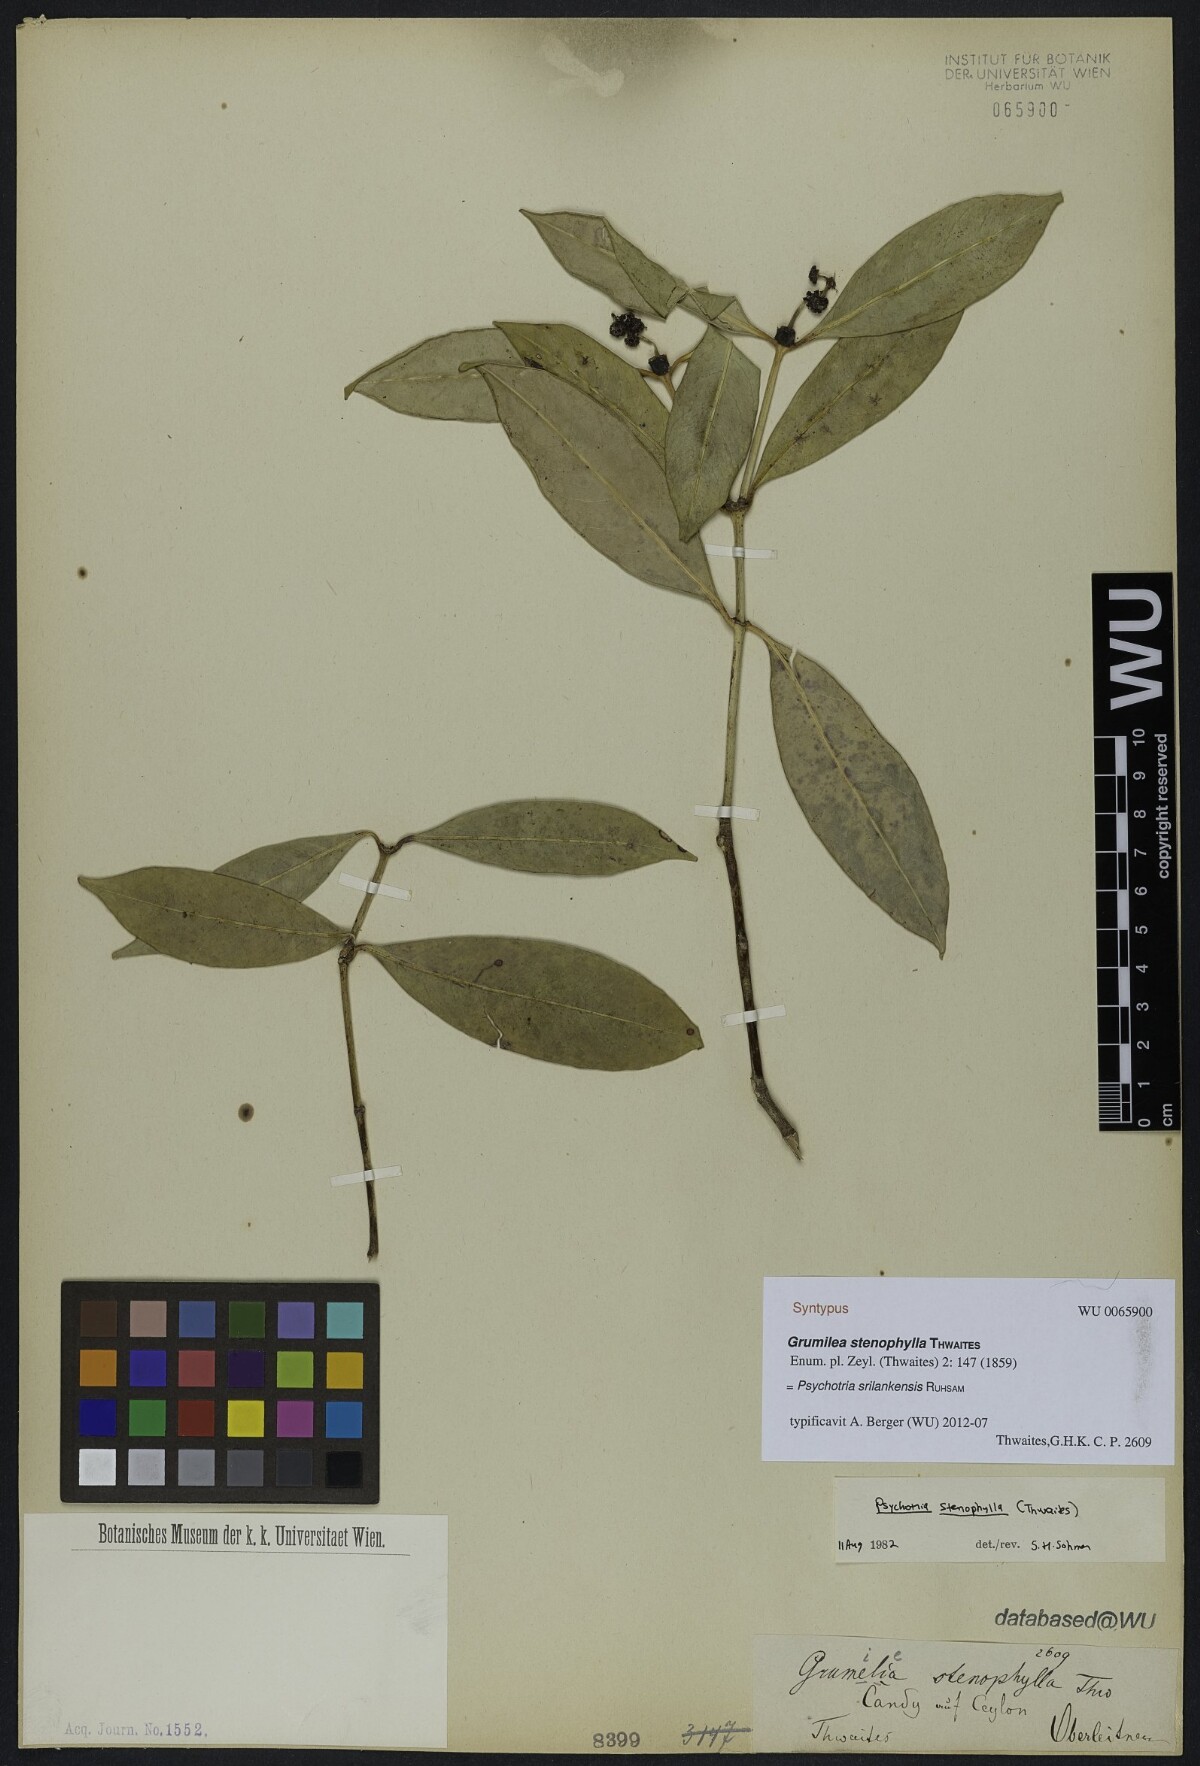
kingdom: Plantae
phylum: Tracheophyta
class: Magnoliopsida
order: Gentianales
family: Rubiaceae
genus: Psychotria
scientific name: Psychotria srilankensis
